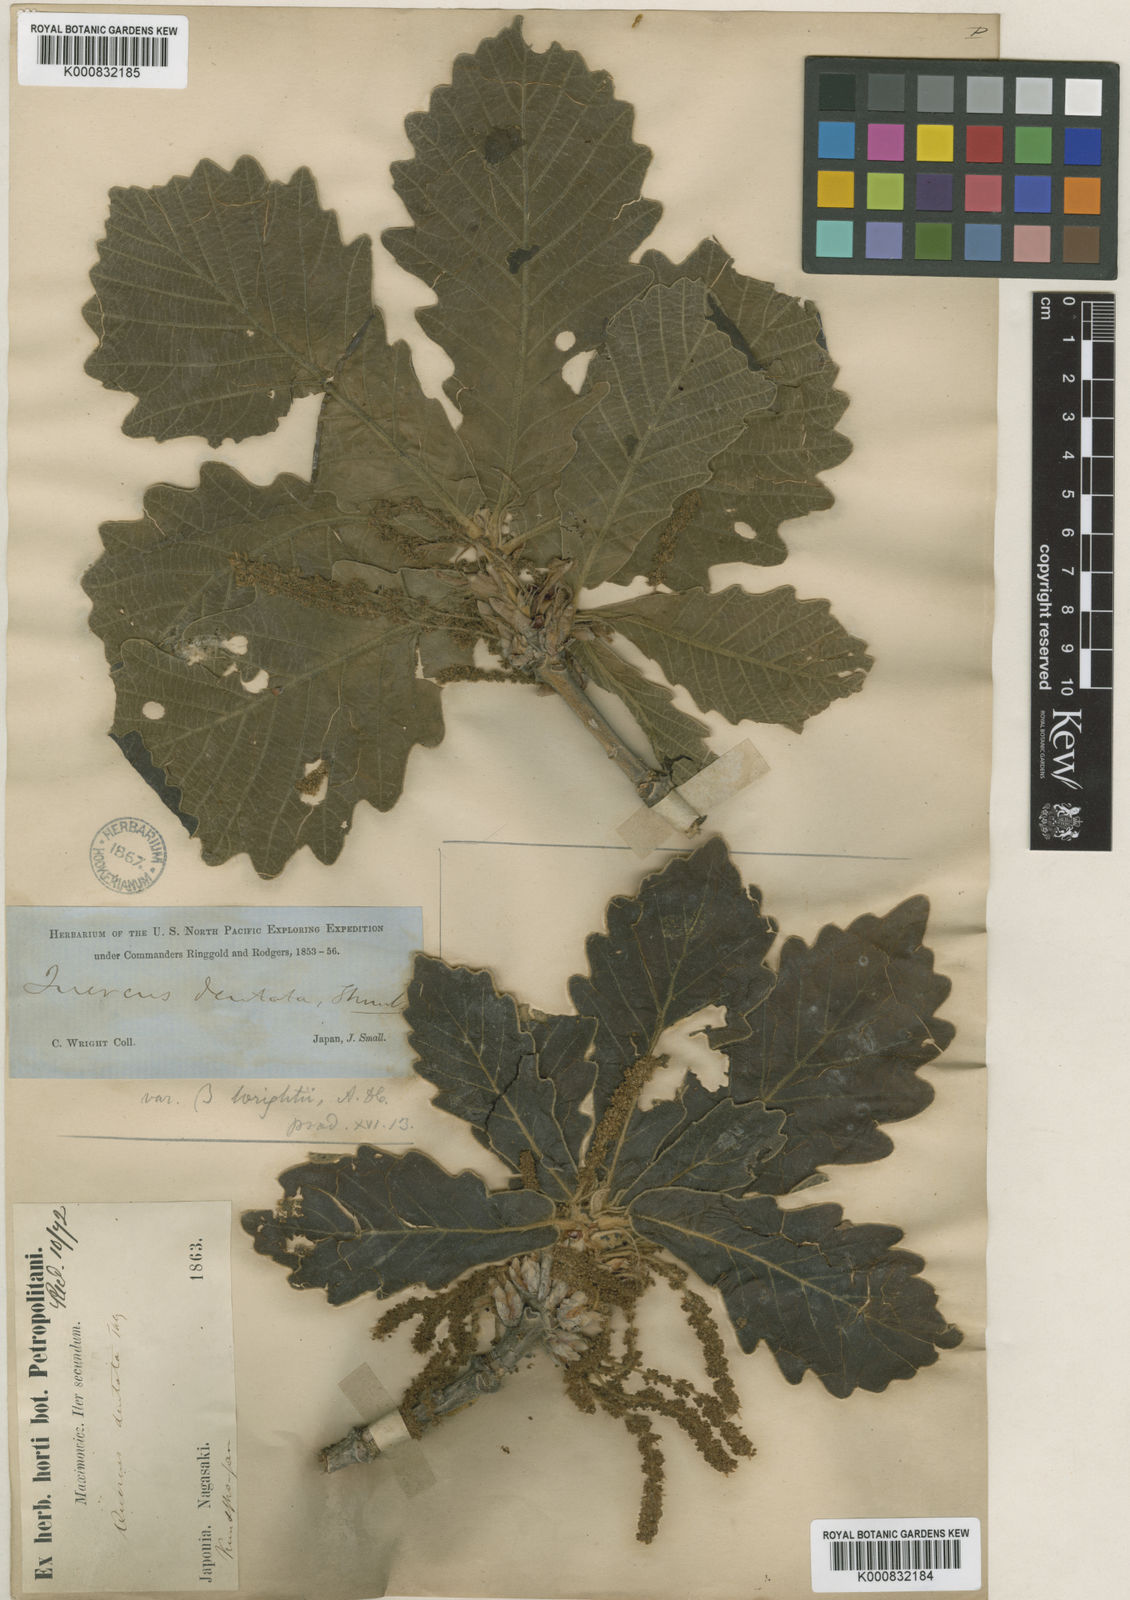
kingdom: Plantae
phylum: Tracheophyta
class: Magnoliopsida
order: Fagales
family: Fagaceae
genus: Quercus
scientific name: Quercus dentata
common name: Daimyo oak
